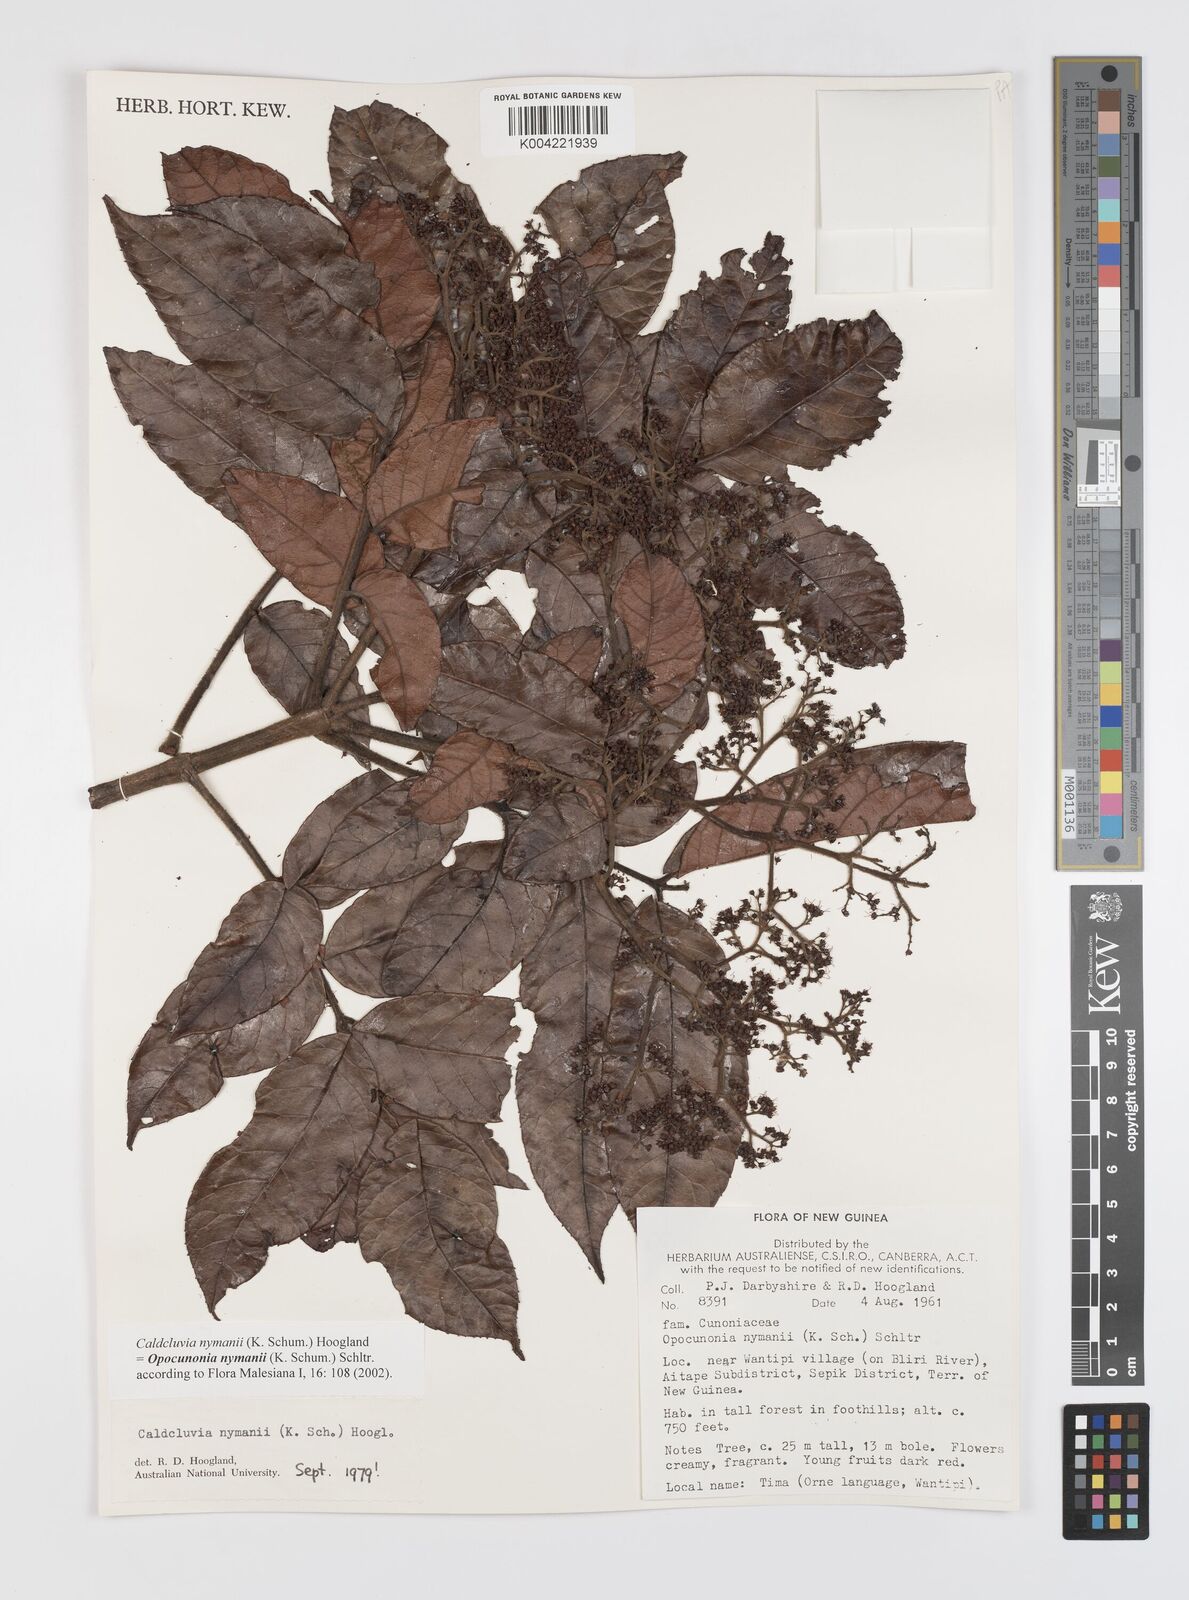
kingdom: Plantae
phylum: Tracheophyta
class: Magnoliopsida
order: Oxalidales
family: Cunoniaceae
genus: Opocunonia
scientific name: Opocunonia nymanii
